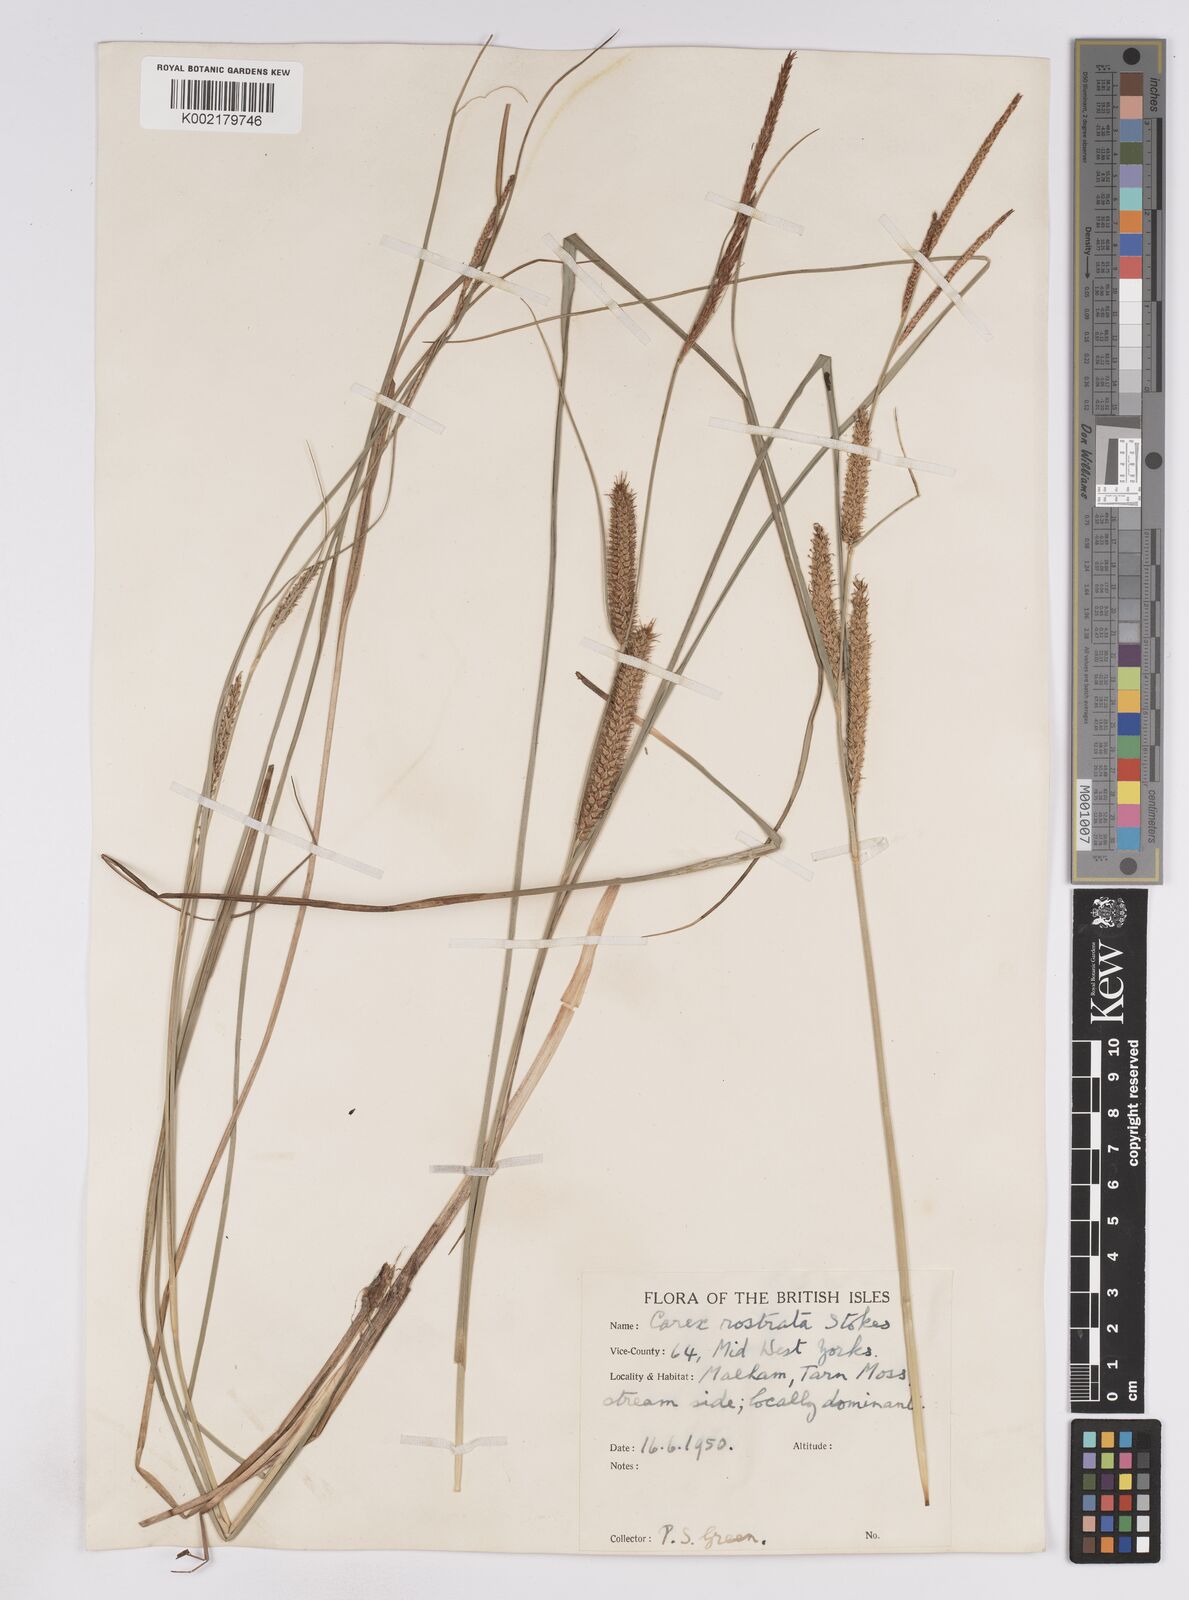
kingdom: Plantae
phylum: Tracheophyta
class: Liliopsida
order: Poales
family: Cyperaceae
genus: Carex
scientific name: Carex rostrata
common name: Bottle sedge
